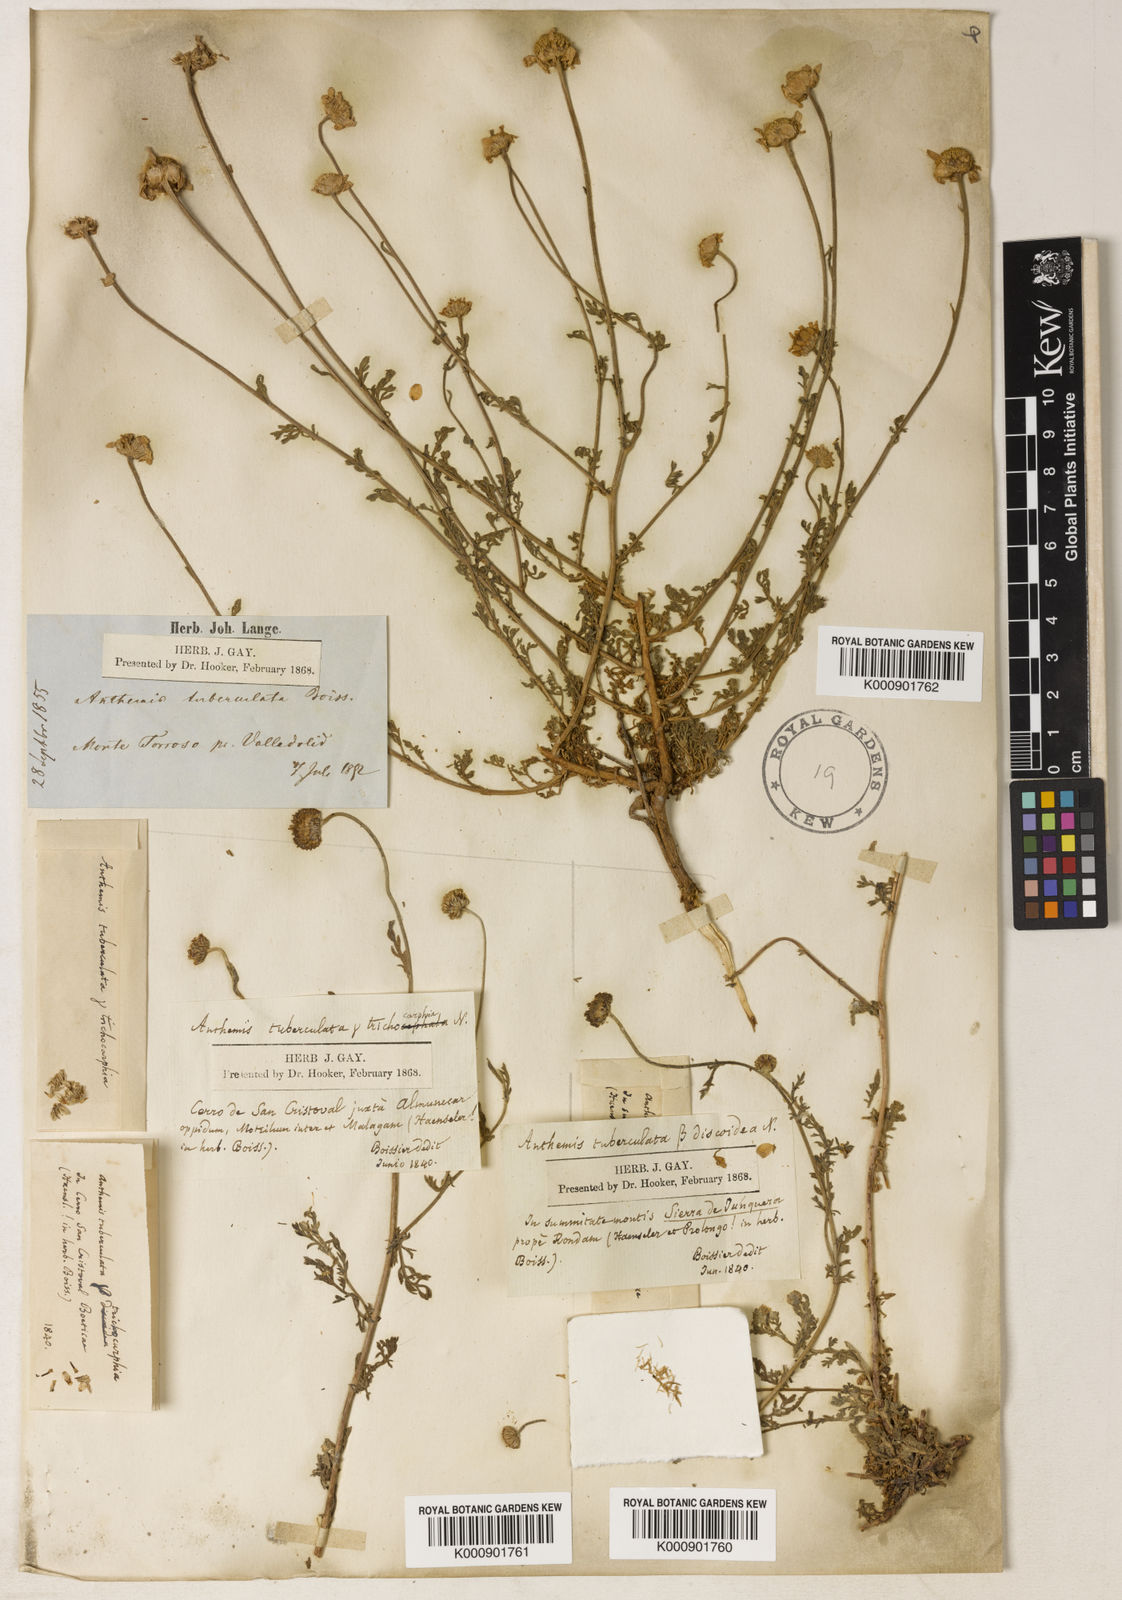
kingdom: Plantae
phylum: Tracheophyta
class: Magnoliopsida
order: Asterales
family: Asteraceae
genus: Anthemis
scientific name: Anthemis
